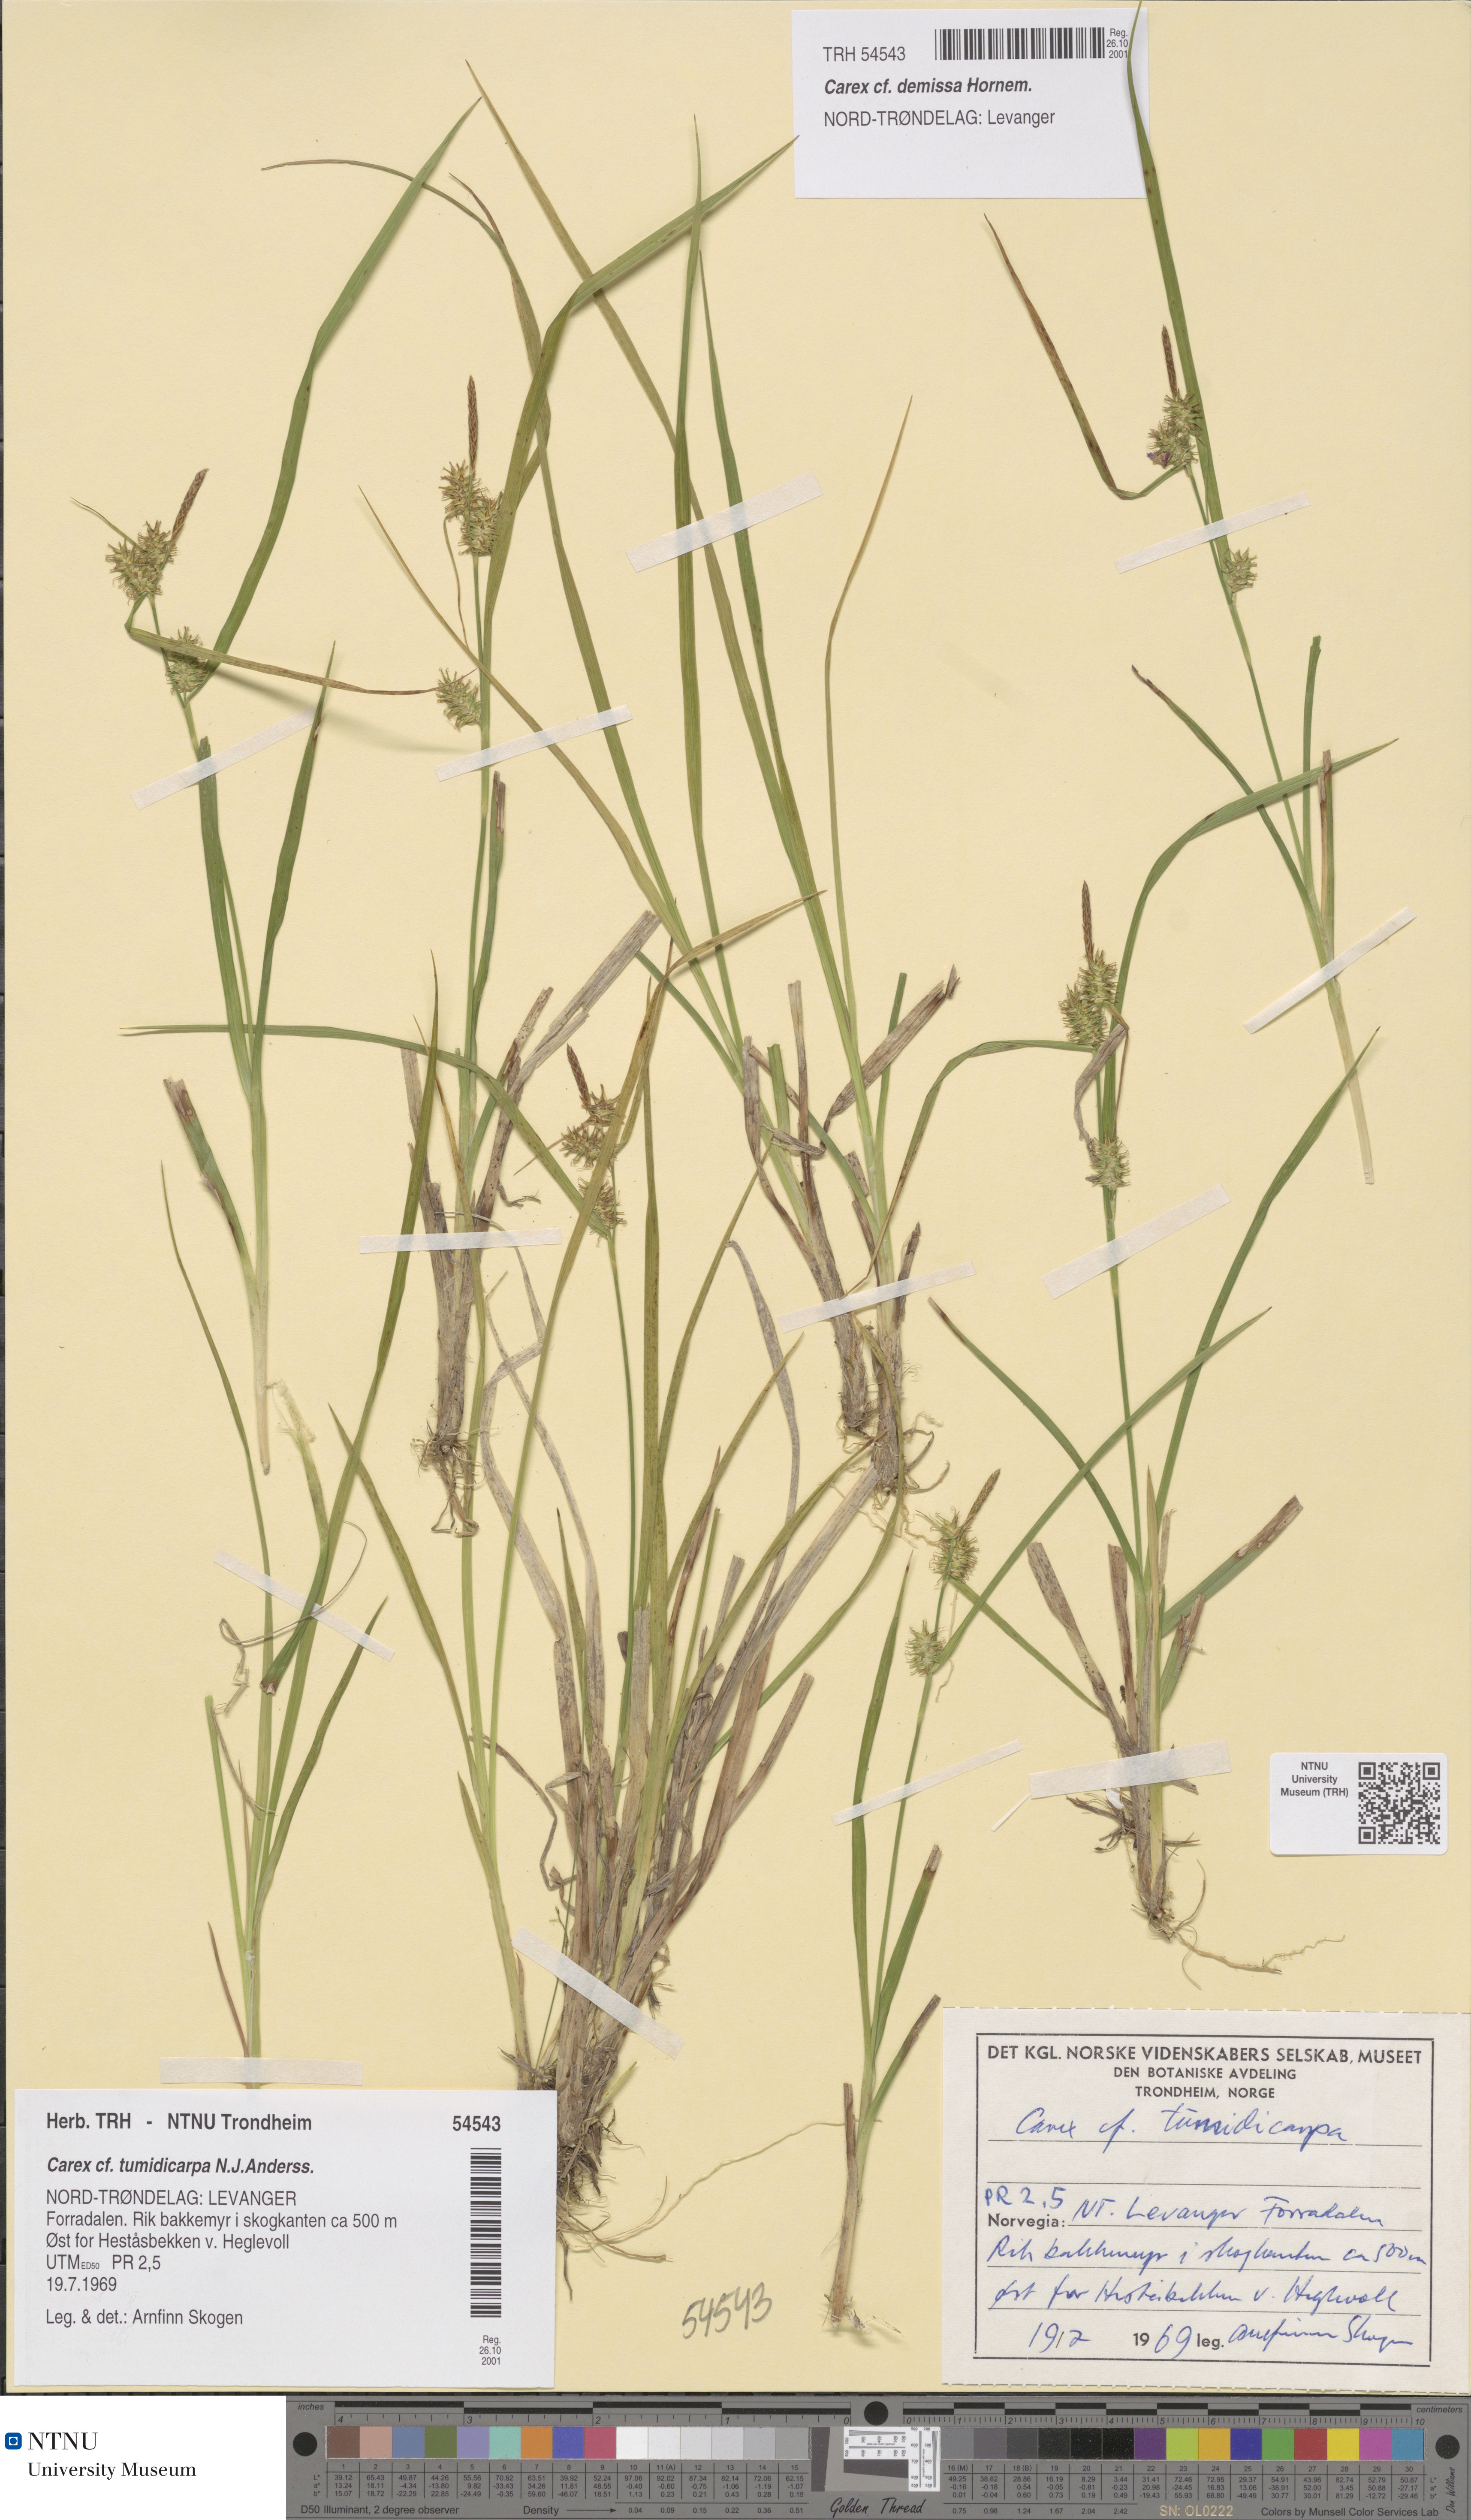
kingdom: Plantae
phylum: Tracheophyta
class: Liliopsida
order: Poales
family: Cyperaceae
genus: Carex
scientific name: Carex demissa
